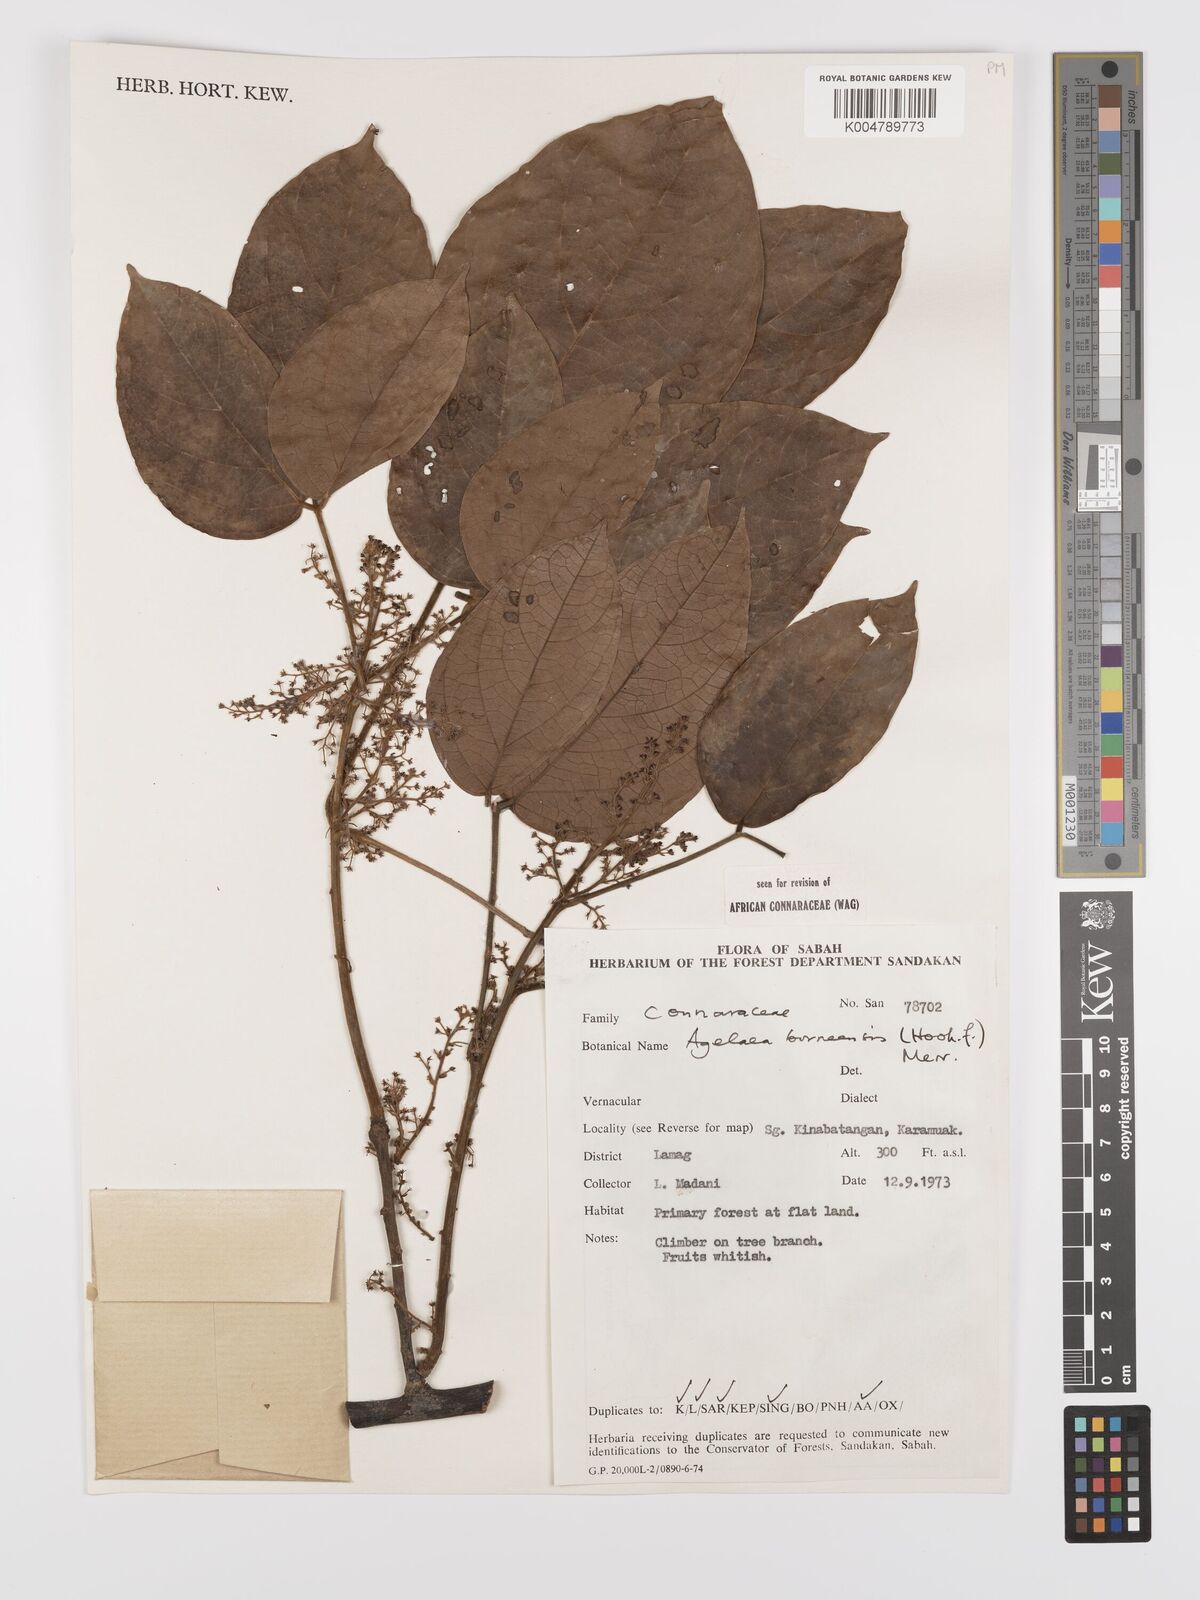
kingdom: Plantae
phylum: Tracheophyta
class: Magnoliopsida
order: Oxalidales
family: Connaraceae
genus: Agelaea
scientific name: Agelaea borneensis
